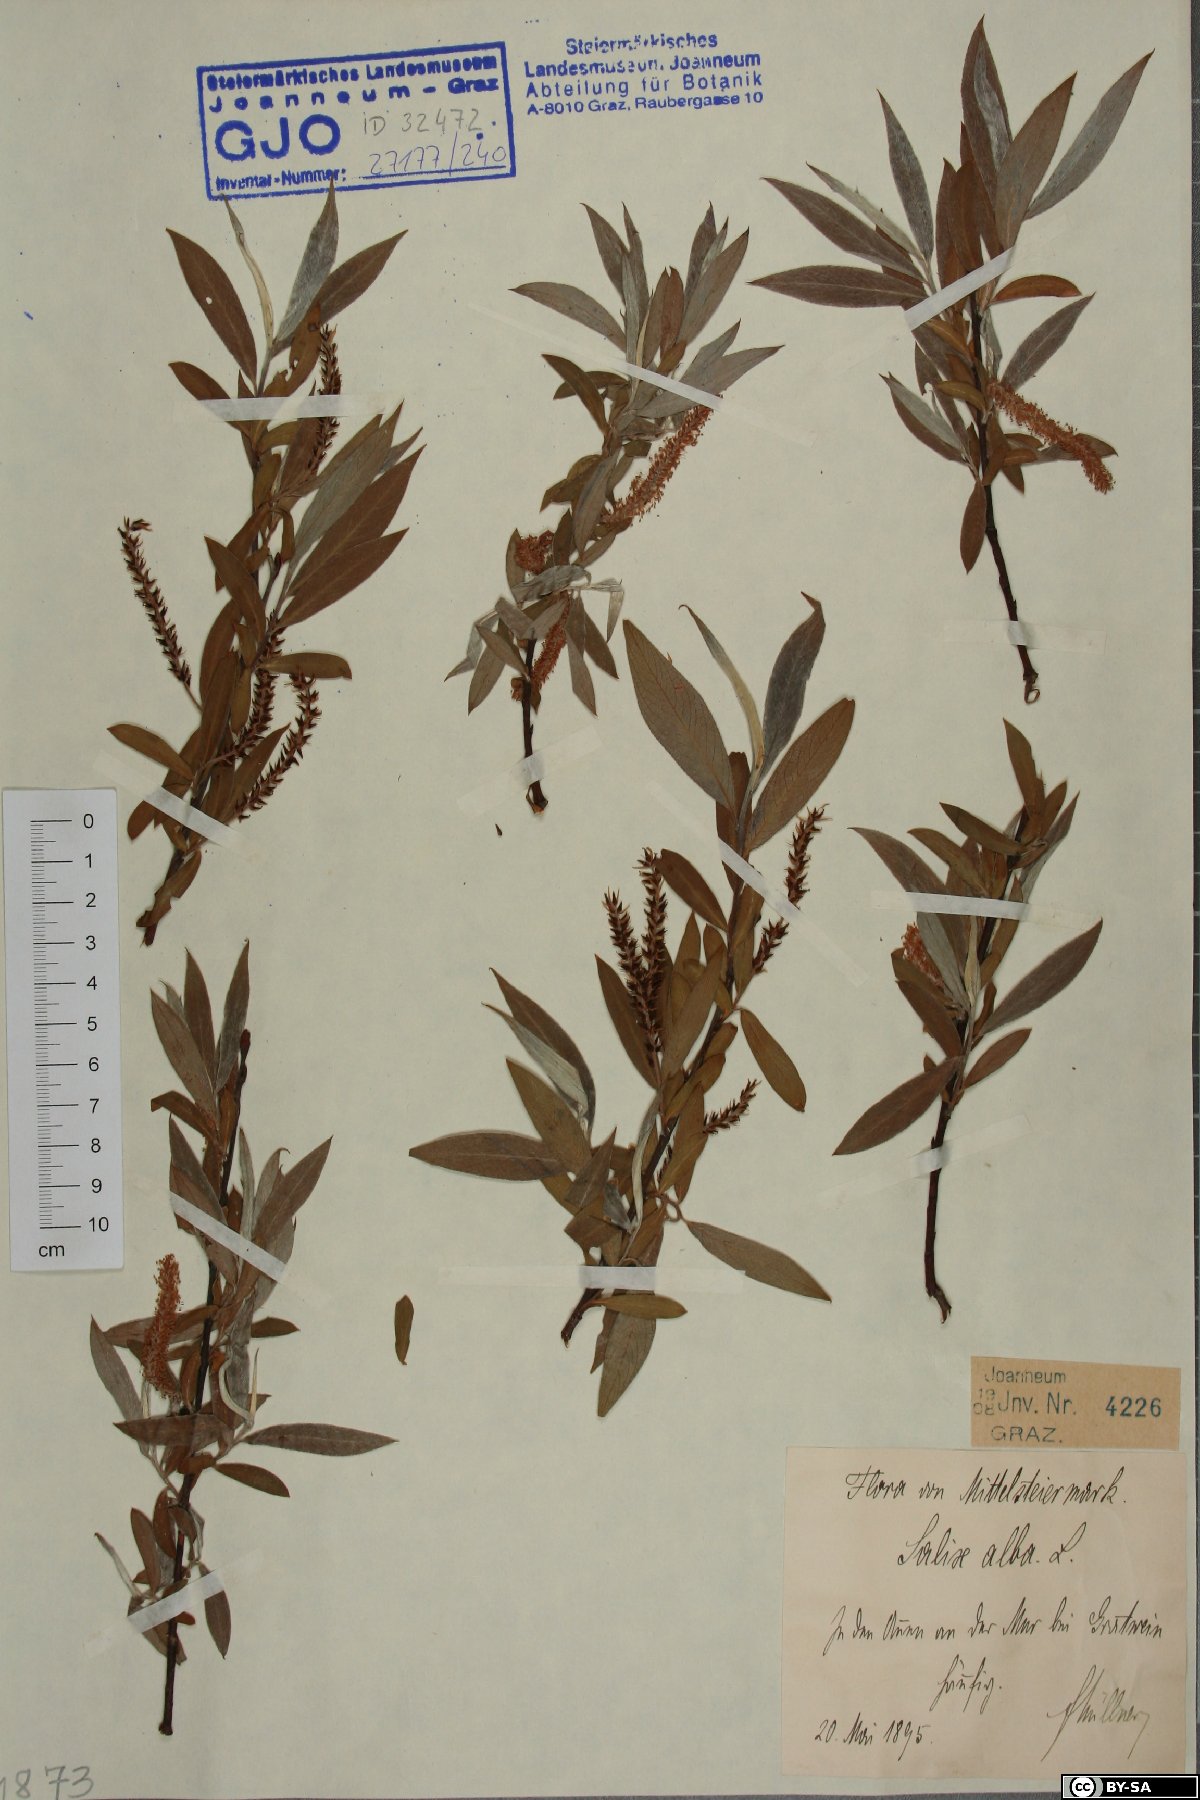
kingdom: Plantae
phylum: Tracheophyta
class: Magnoliopsida
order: Malpighiales
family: Salicaceae
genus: Salix
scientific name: Salix alba
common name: White willow
